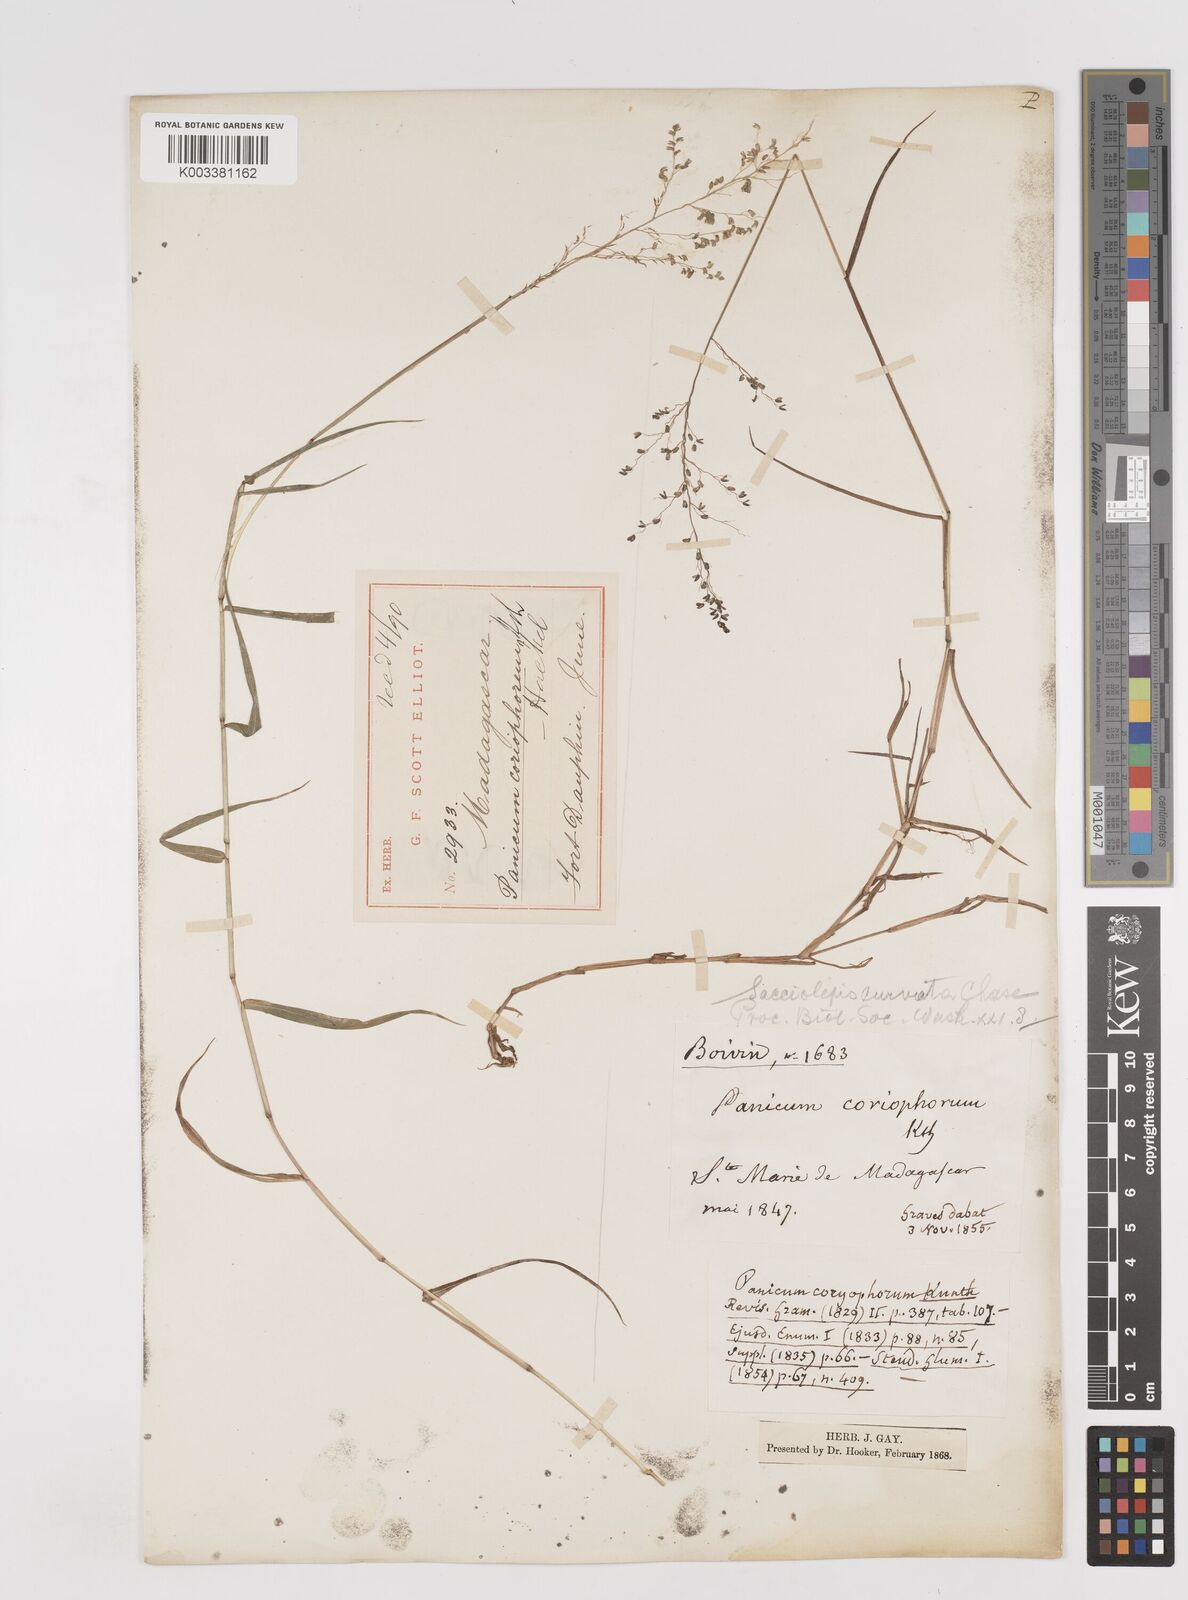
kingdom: Plantae
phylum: Tracheophyta
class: Liliopsida
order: Poales
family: Poaceae
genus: Sacciolepis
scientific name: Sacciolepis curvata
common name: Forest hood grass
